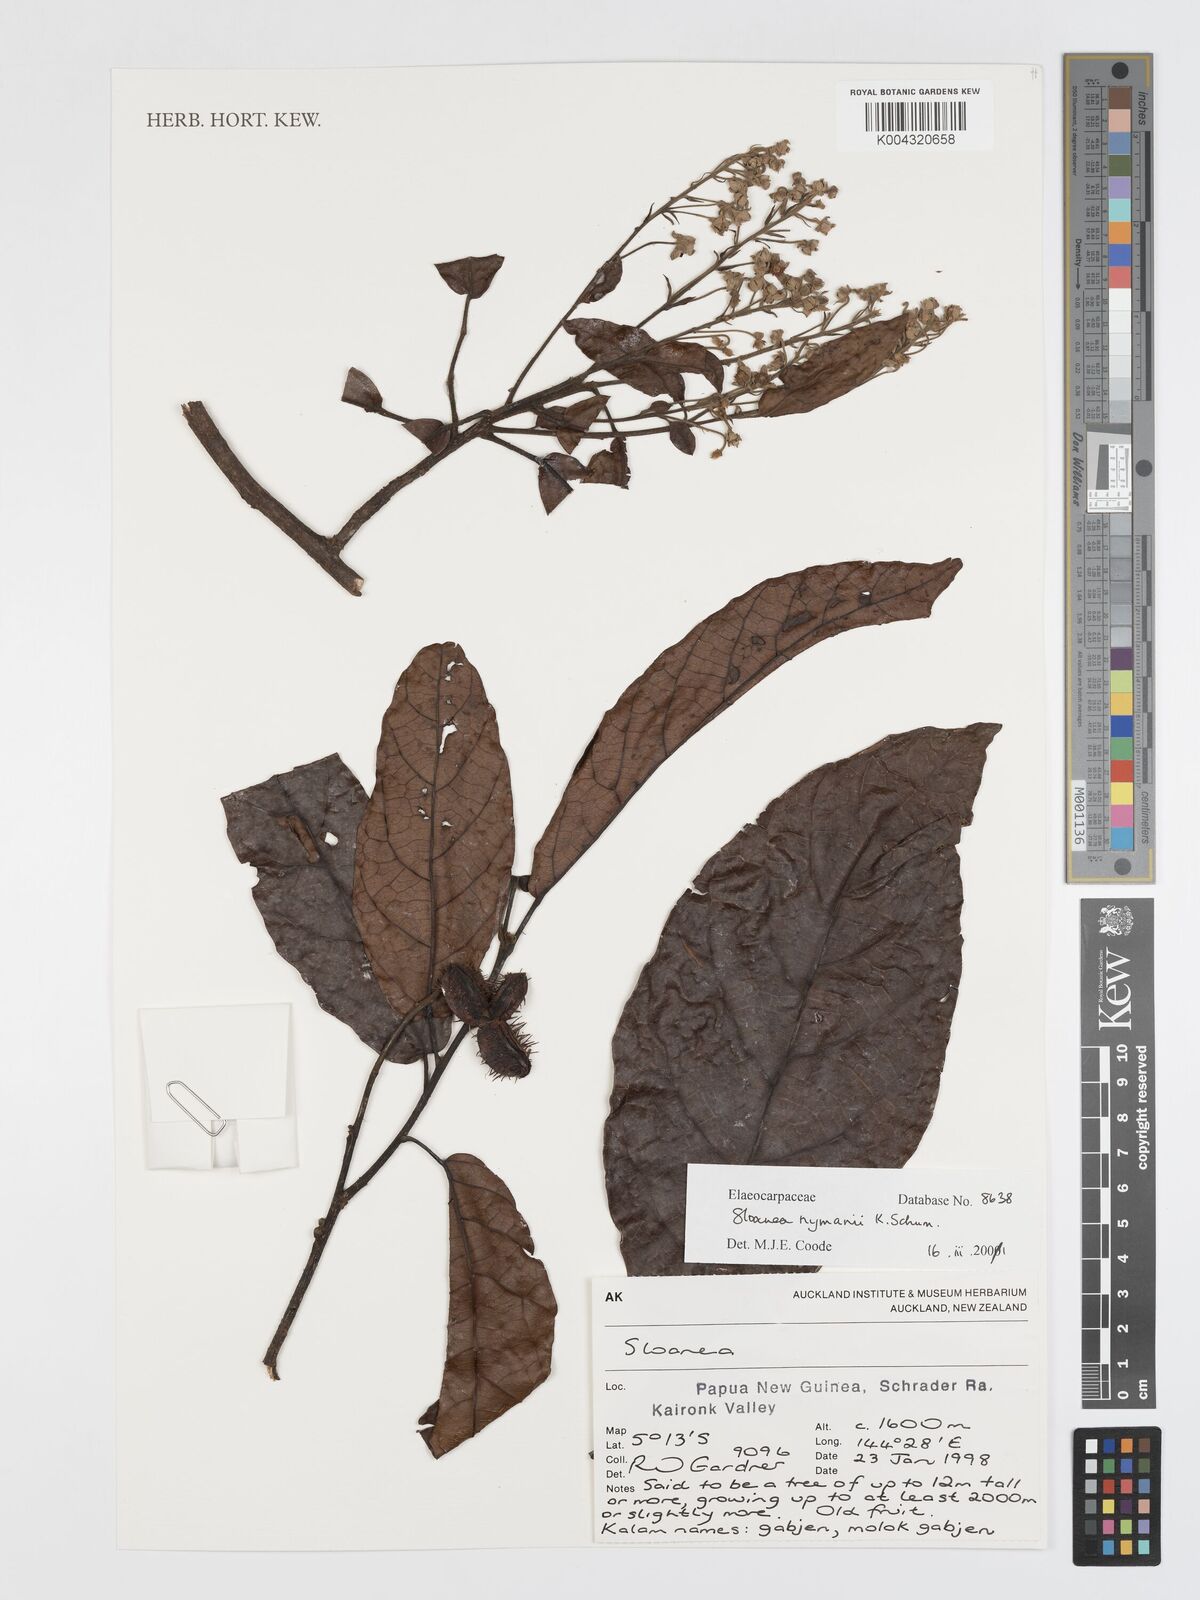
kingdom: Plantae
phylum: Tracheophyta
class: Magnoliopsida
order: Oxalidales
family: Elaeocarpaceae
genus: Sloanea
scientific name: Sloanea nymanii
